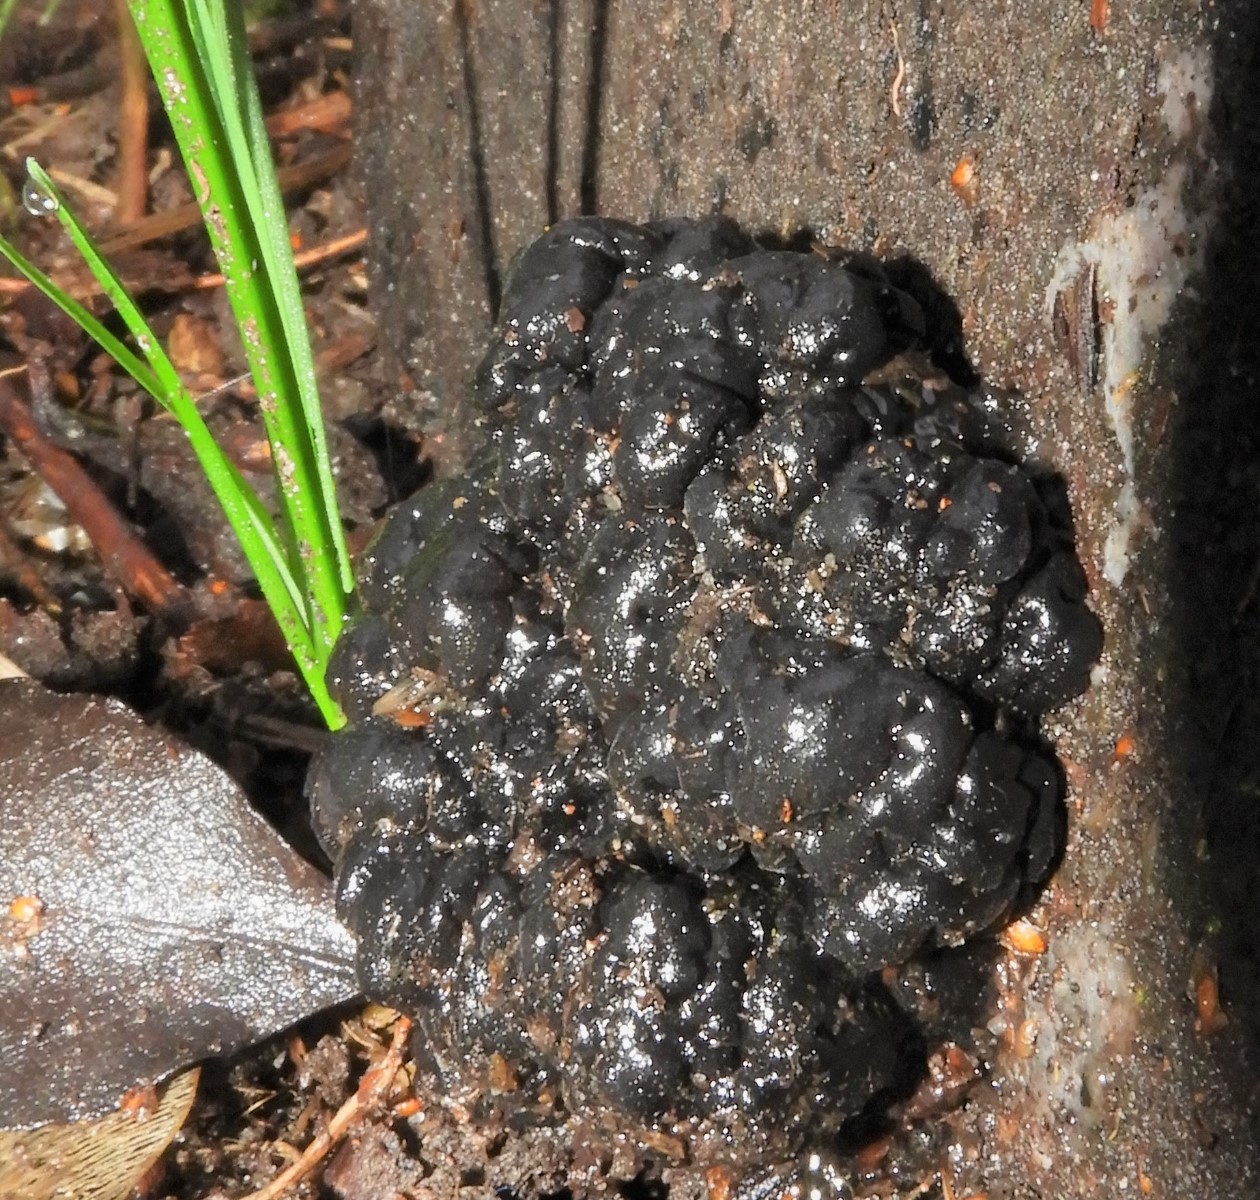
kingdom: Fungi
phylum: Basidiomycota
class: Agaricomycetes
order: Auriculariales
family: Auriculariaceae
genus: Exidia
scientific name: Exidia nigricans
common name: almindelig bævretop
